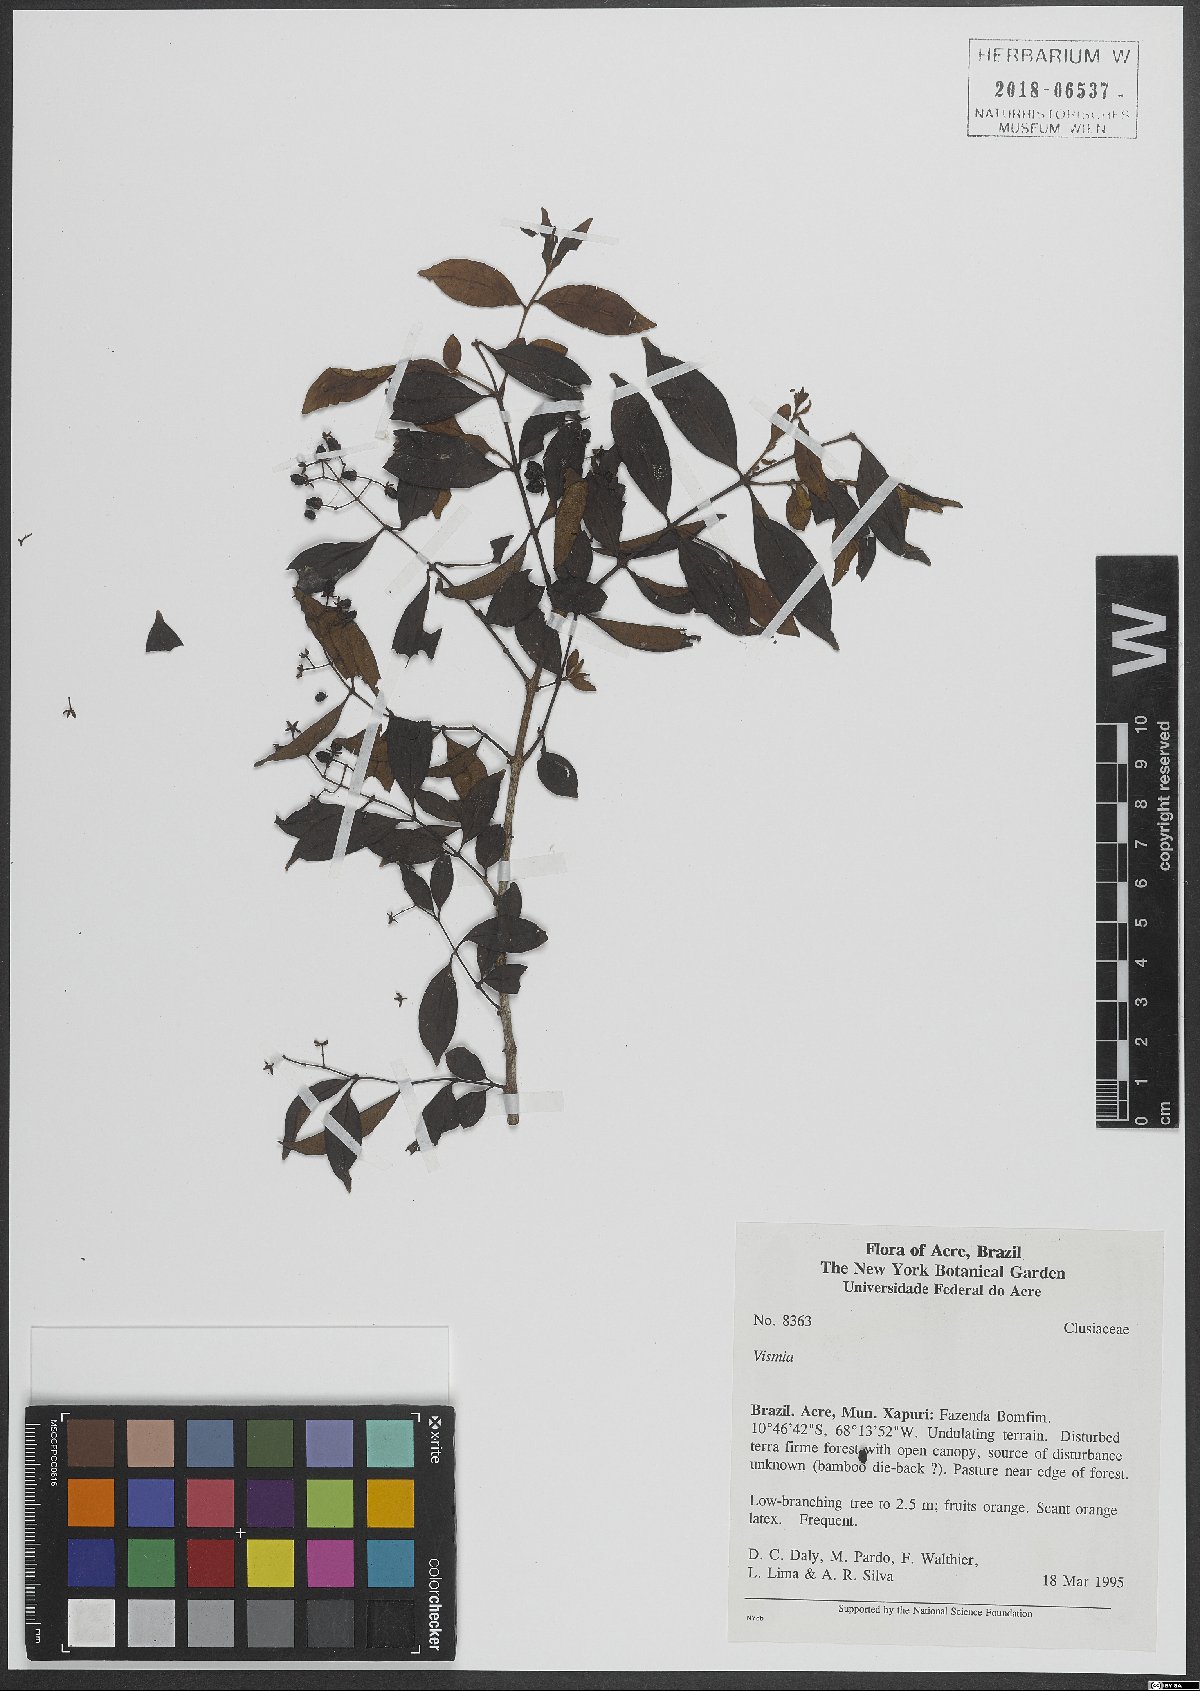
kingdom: Plantae
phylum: Tracheophyta
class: Magnoliopsida
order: Malpighiales
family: Hypericaceae
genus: Vismia
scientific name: Vismia
